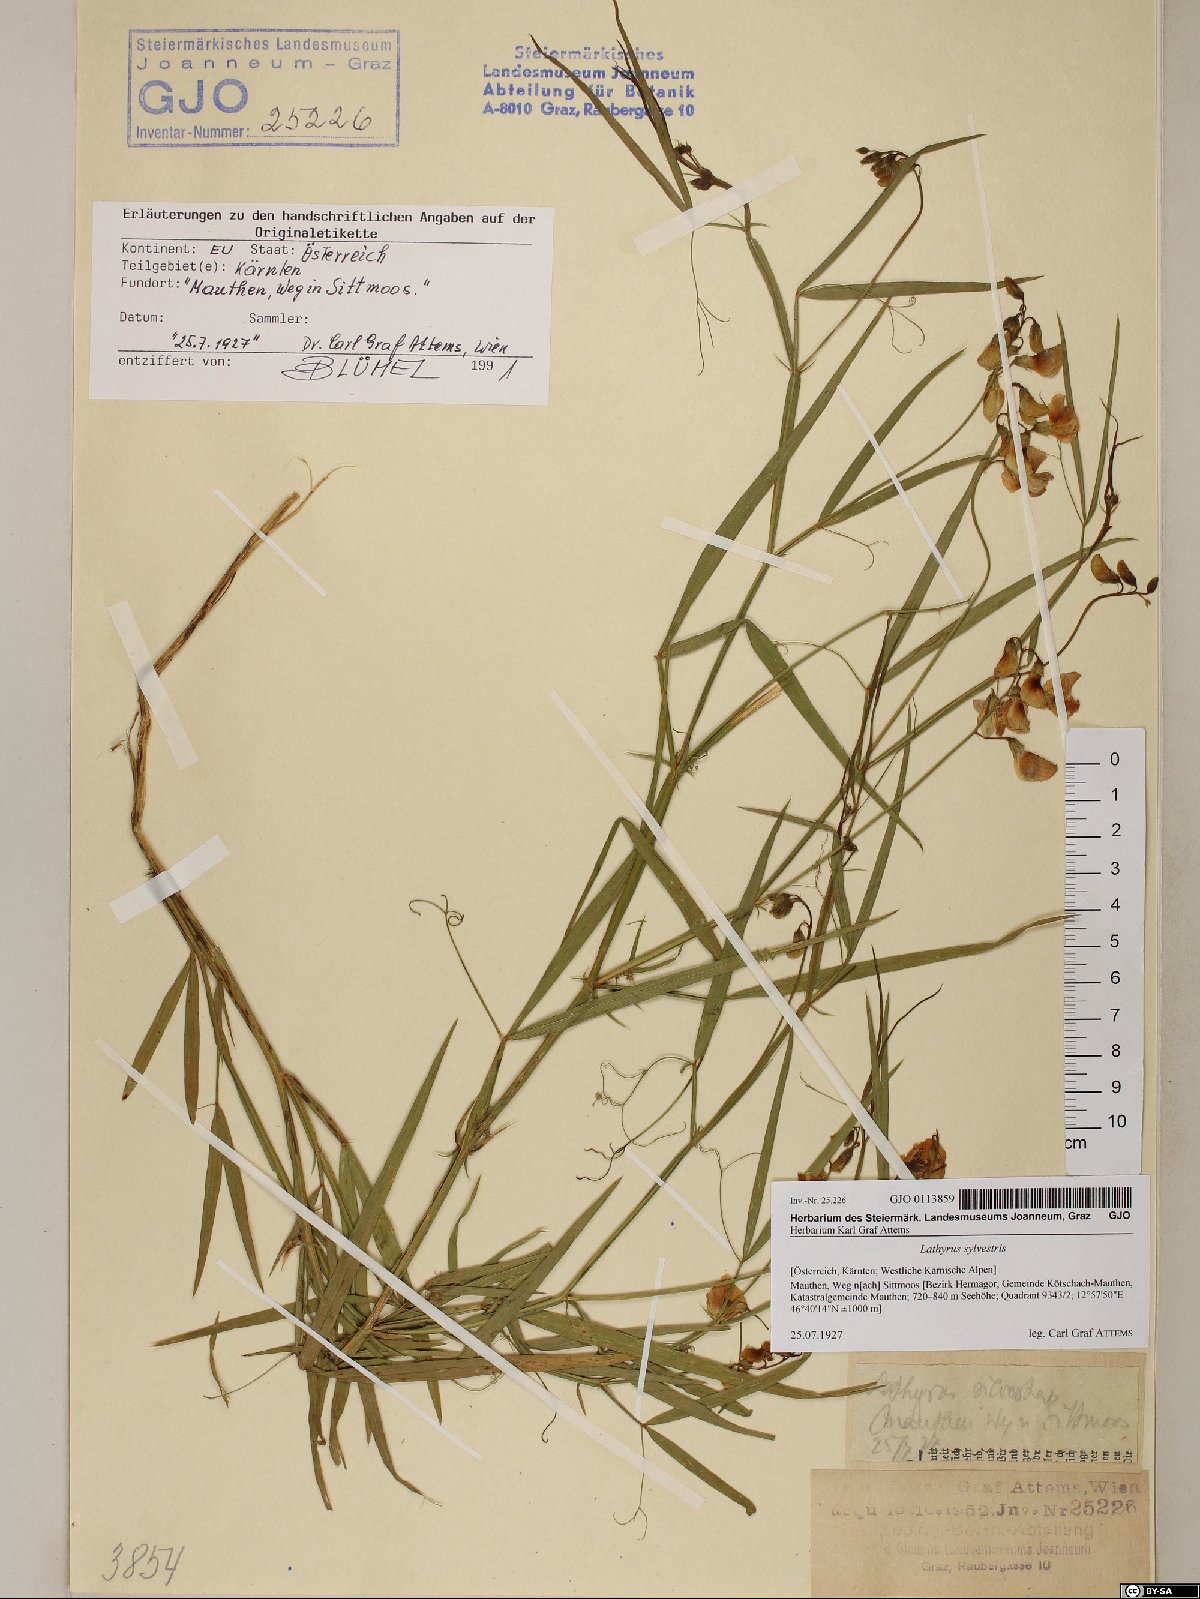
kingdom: Plantae
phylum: Tracheophyta
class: Magnoliopsida
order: Fabales
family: Fabaceae
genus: Lathyrus
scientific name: Lathyrus sylvestris
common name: Flat pea
